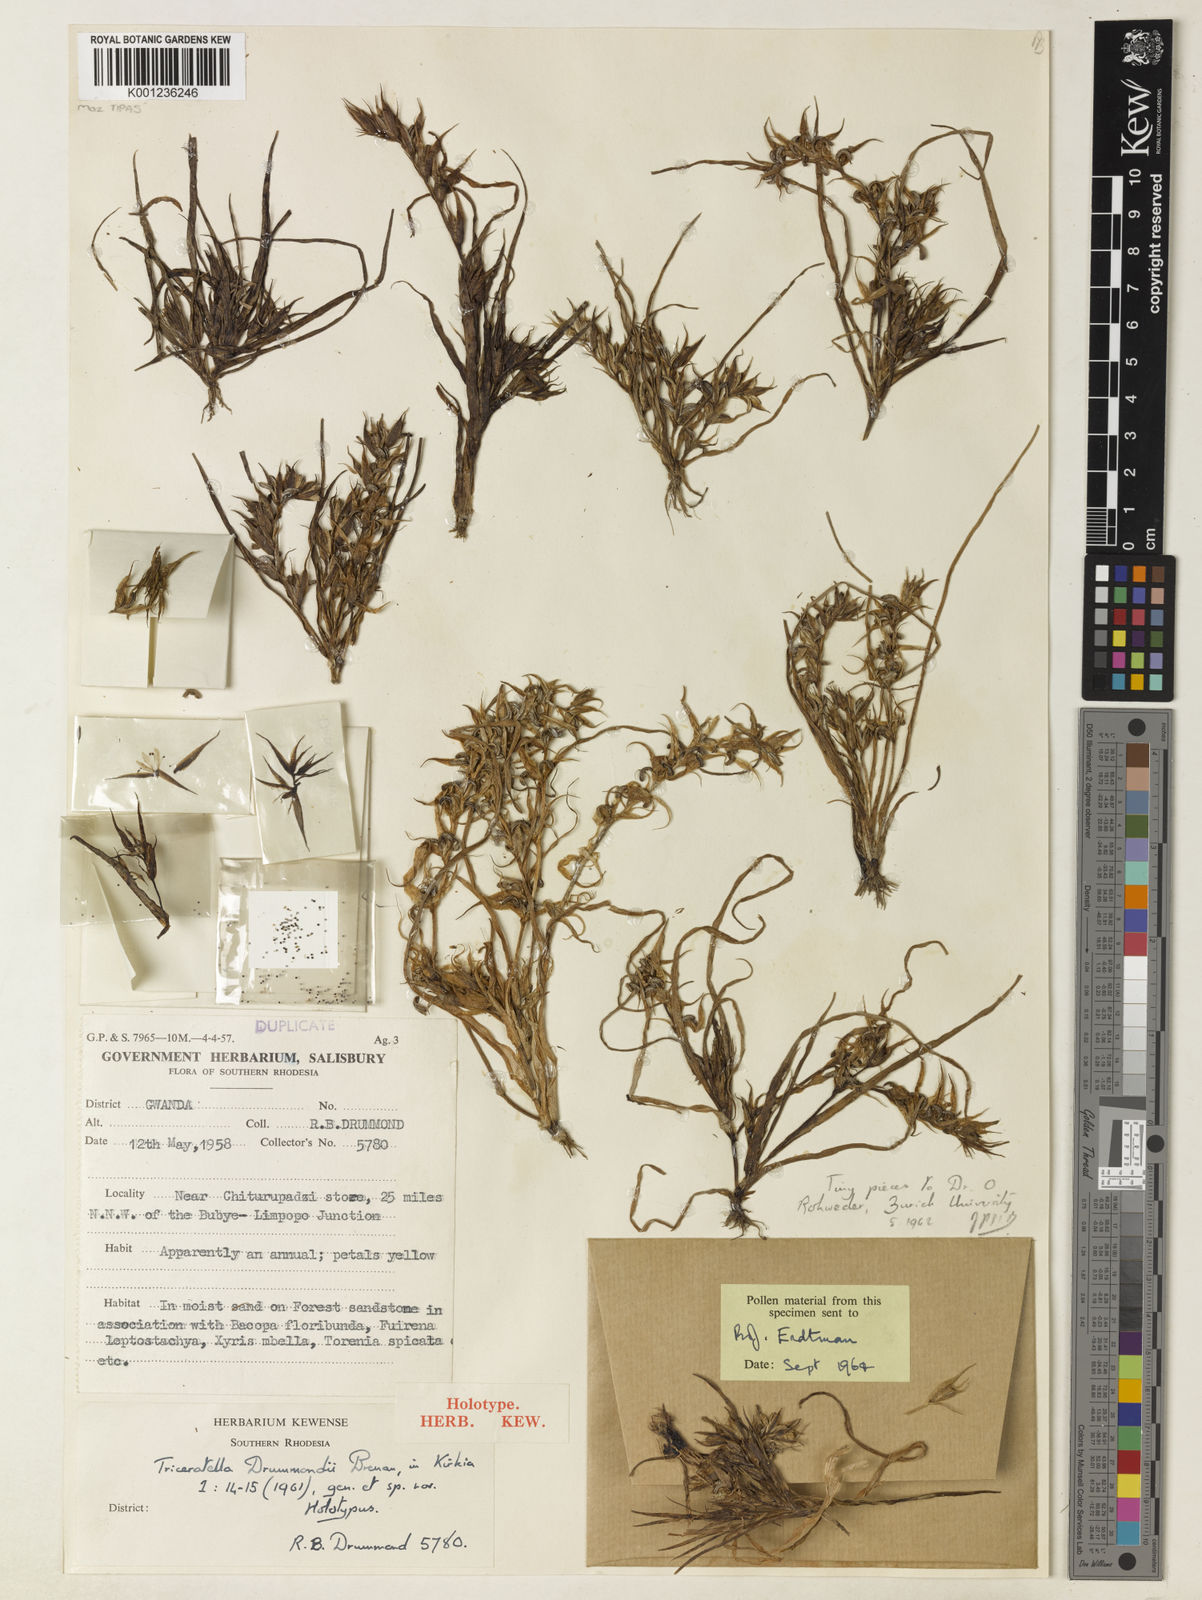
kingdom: Plantae
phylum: Tracheophyta
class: Liliopsida
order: Commelinales
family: Commelinaceae
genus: Triceratella
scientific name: Triceratella drummondii
